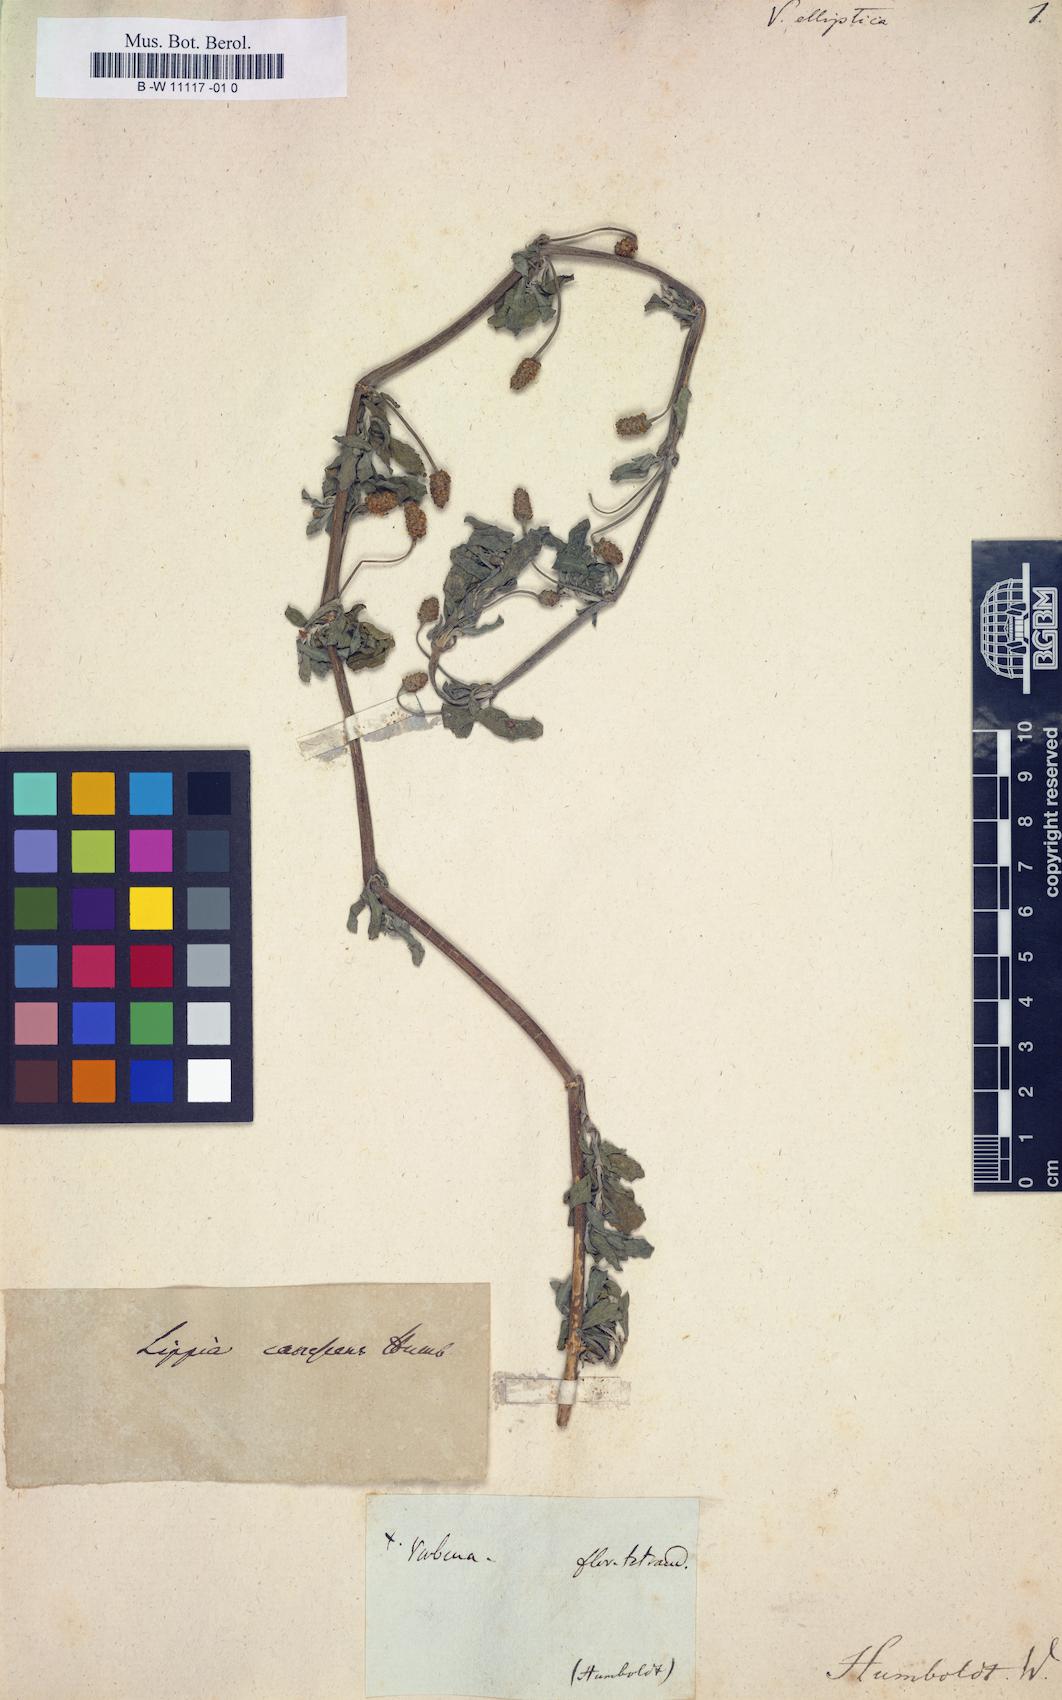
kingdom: Plantae
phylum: Tracheophyta
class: Magnoliopsida
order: Lamiales
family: Verbenaceae
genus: Phyla
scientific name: Phyla nodiflora
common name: Frogfruit
